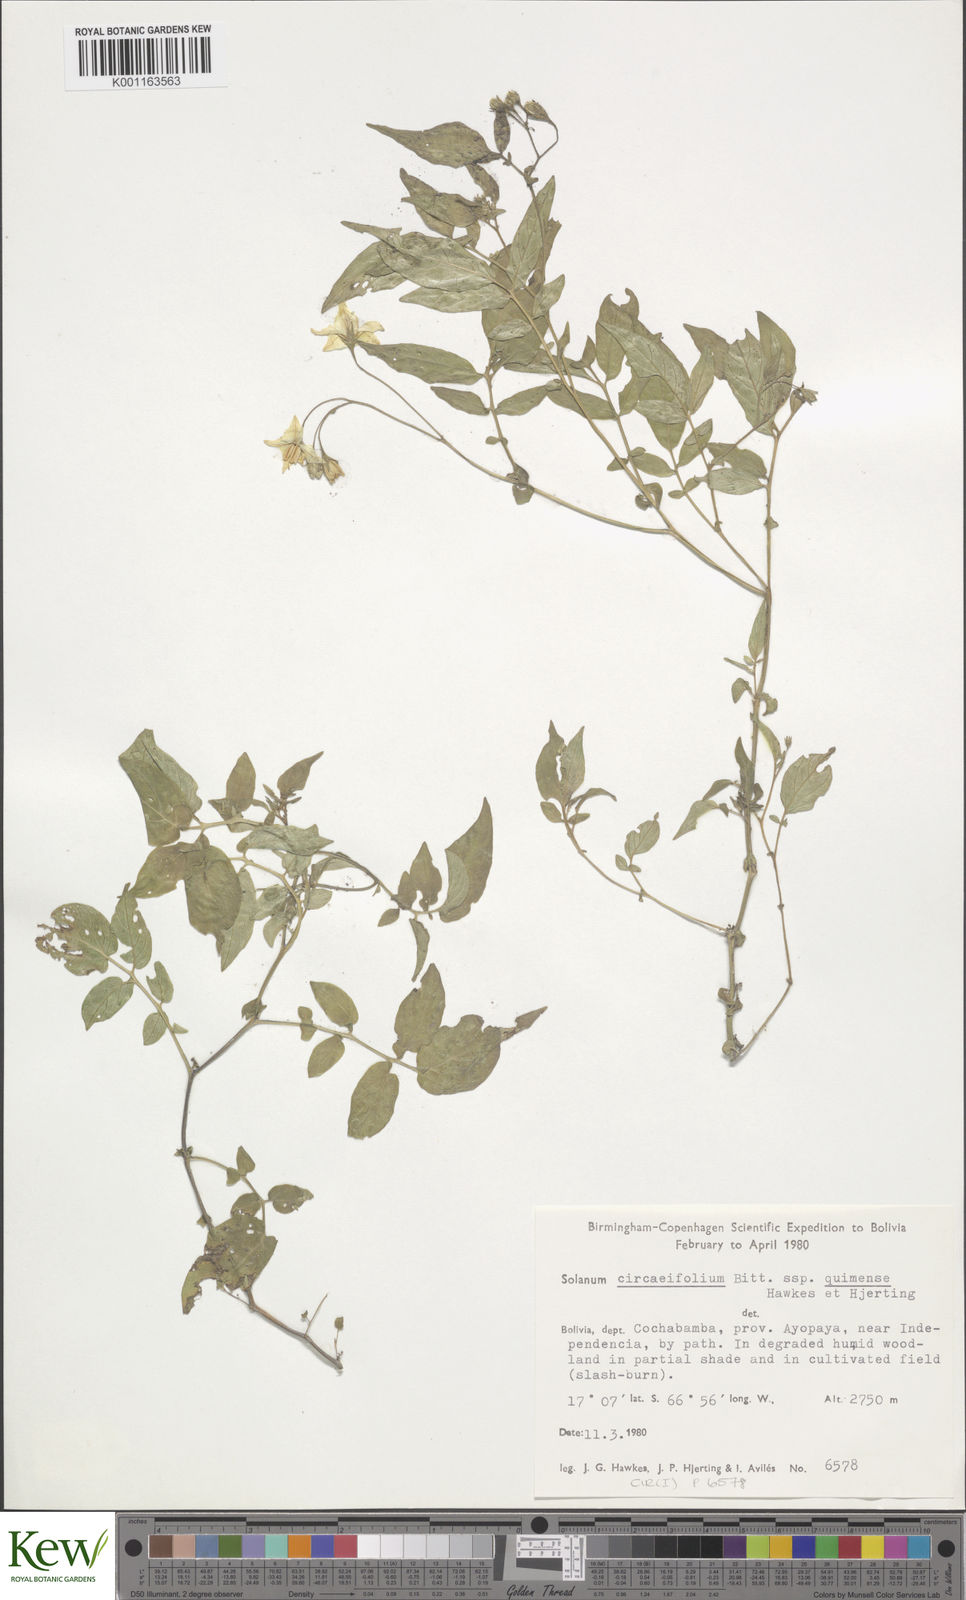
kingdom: Plantae
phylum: Tracheophyta
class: Magnoliopsida
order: Solanales
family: Solanaceae
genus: Solanum
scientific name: Solanum stipuloideum
